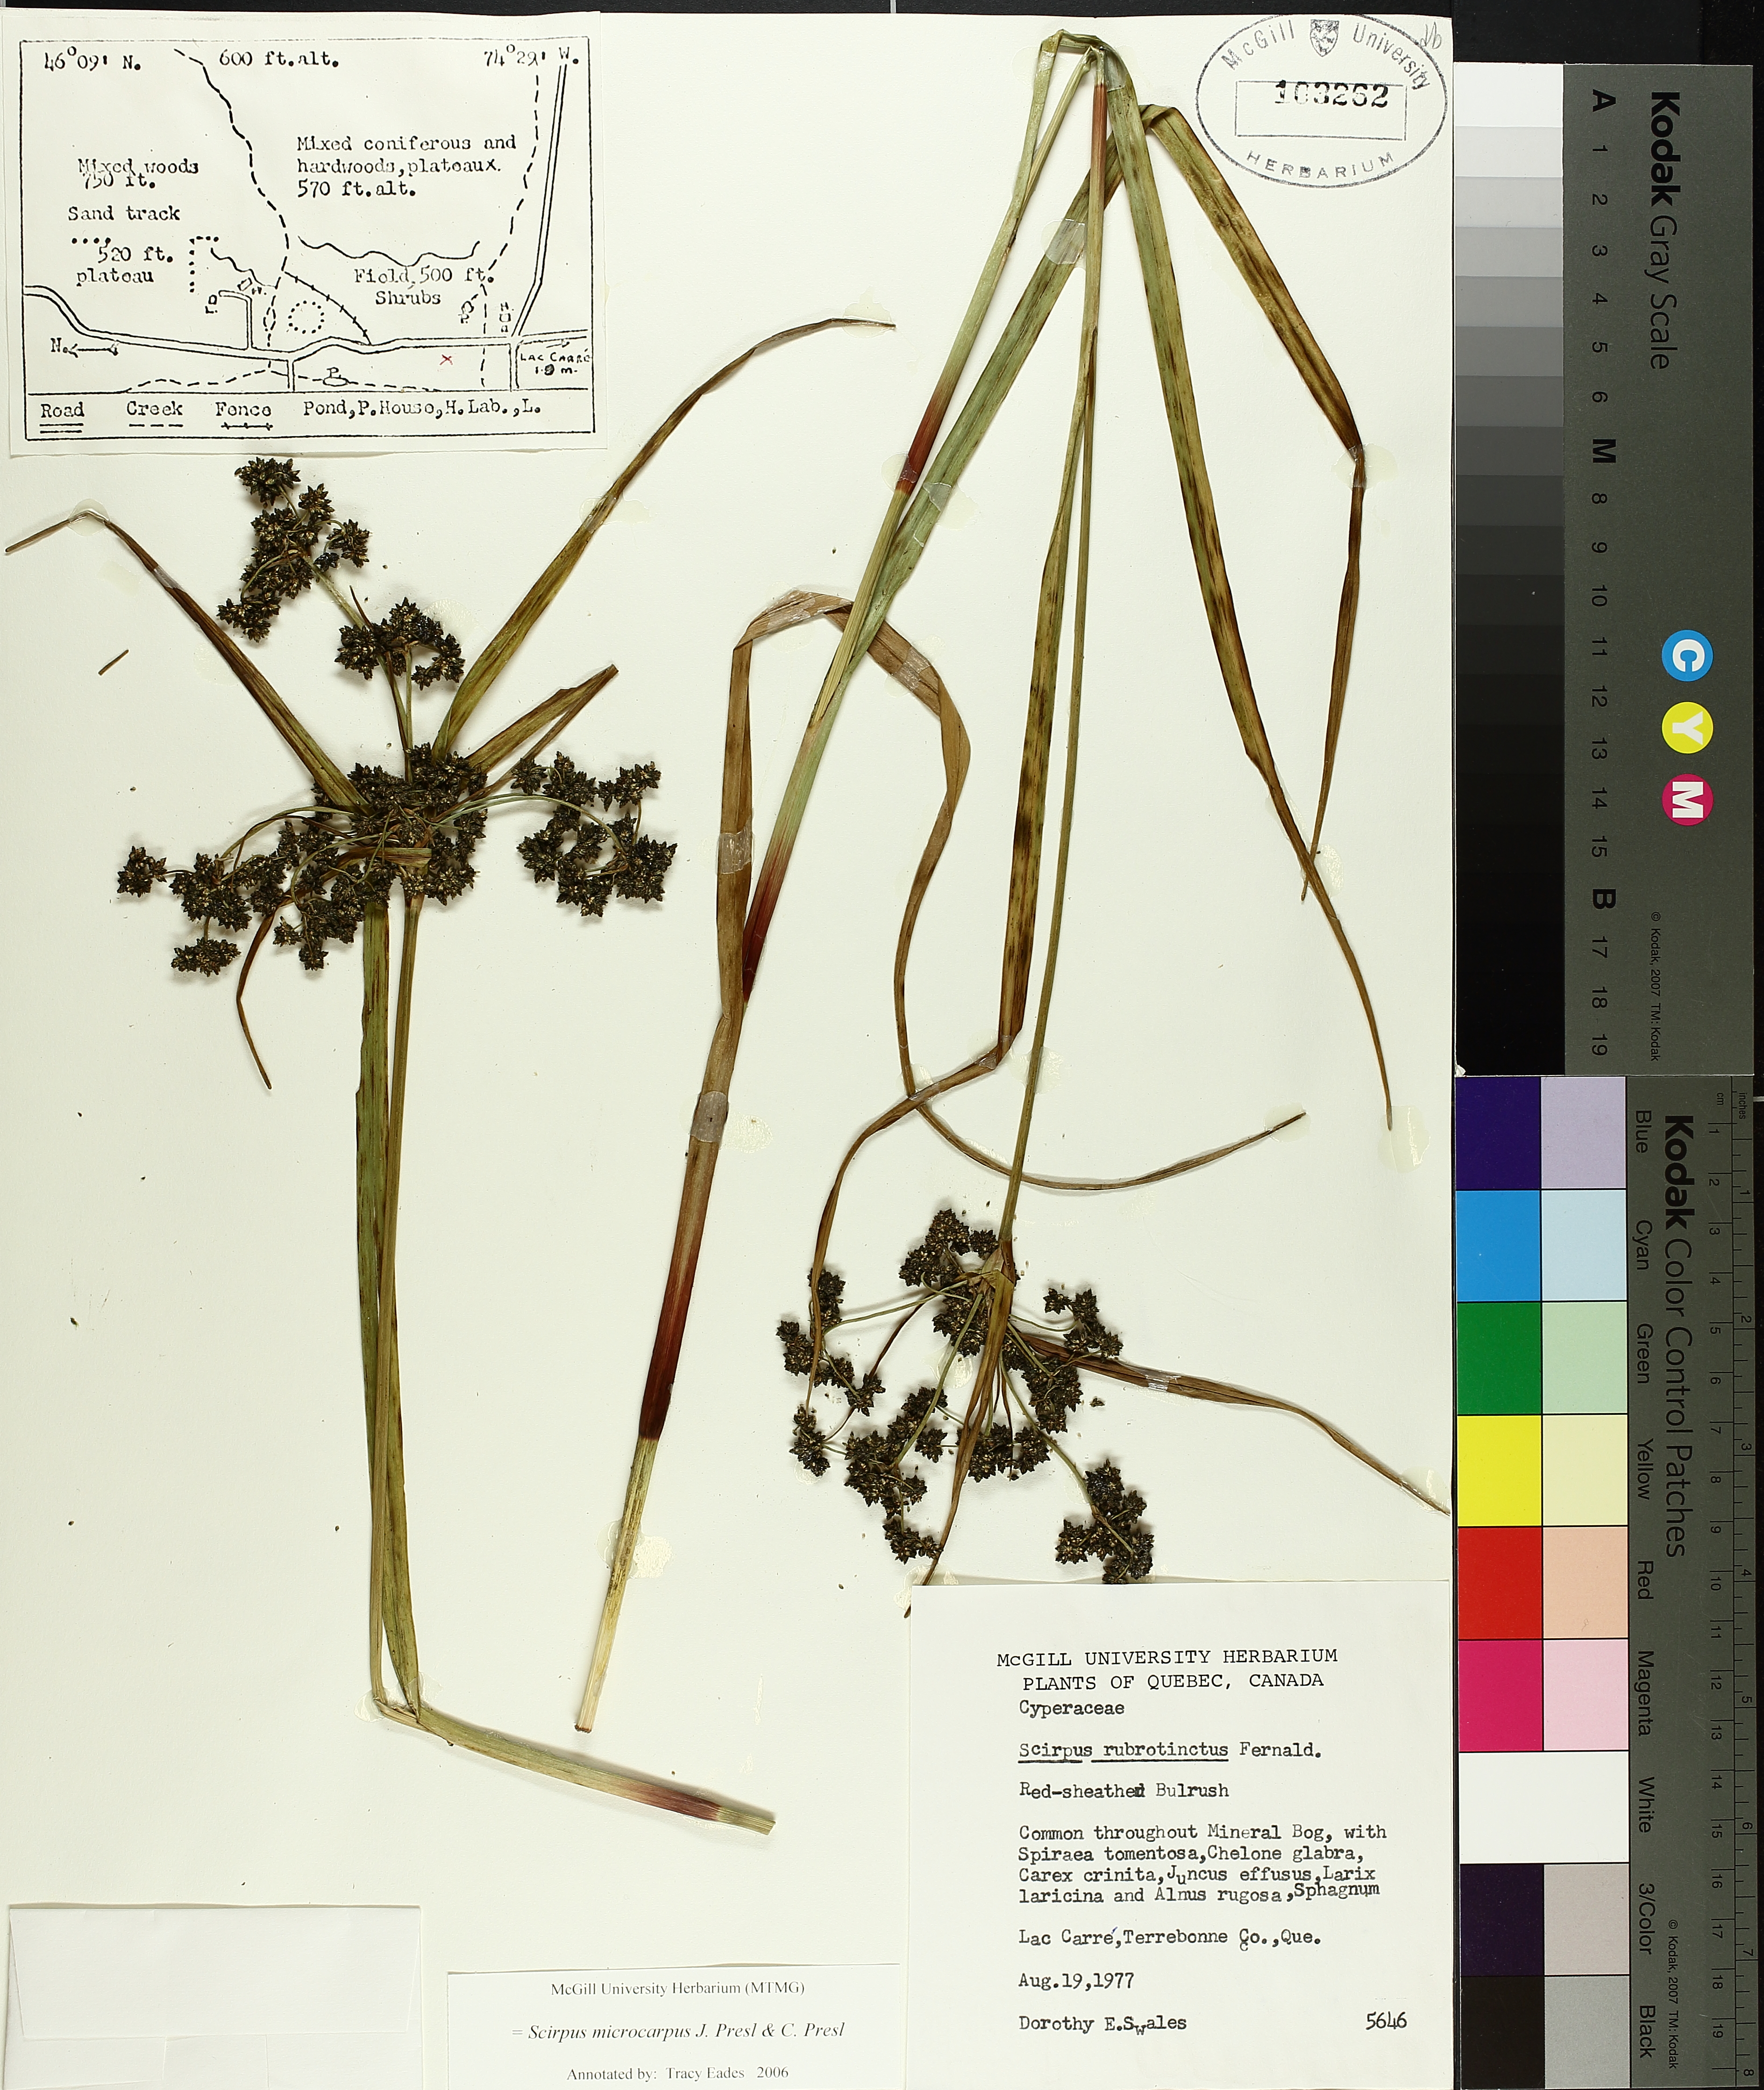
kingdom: Plantae
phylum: Tracheophyta
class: Liliopsida
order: Poales
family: Cyperaceae
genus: Scirpus
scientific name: Scirpus microcarpus
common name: Panicled bulrush
